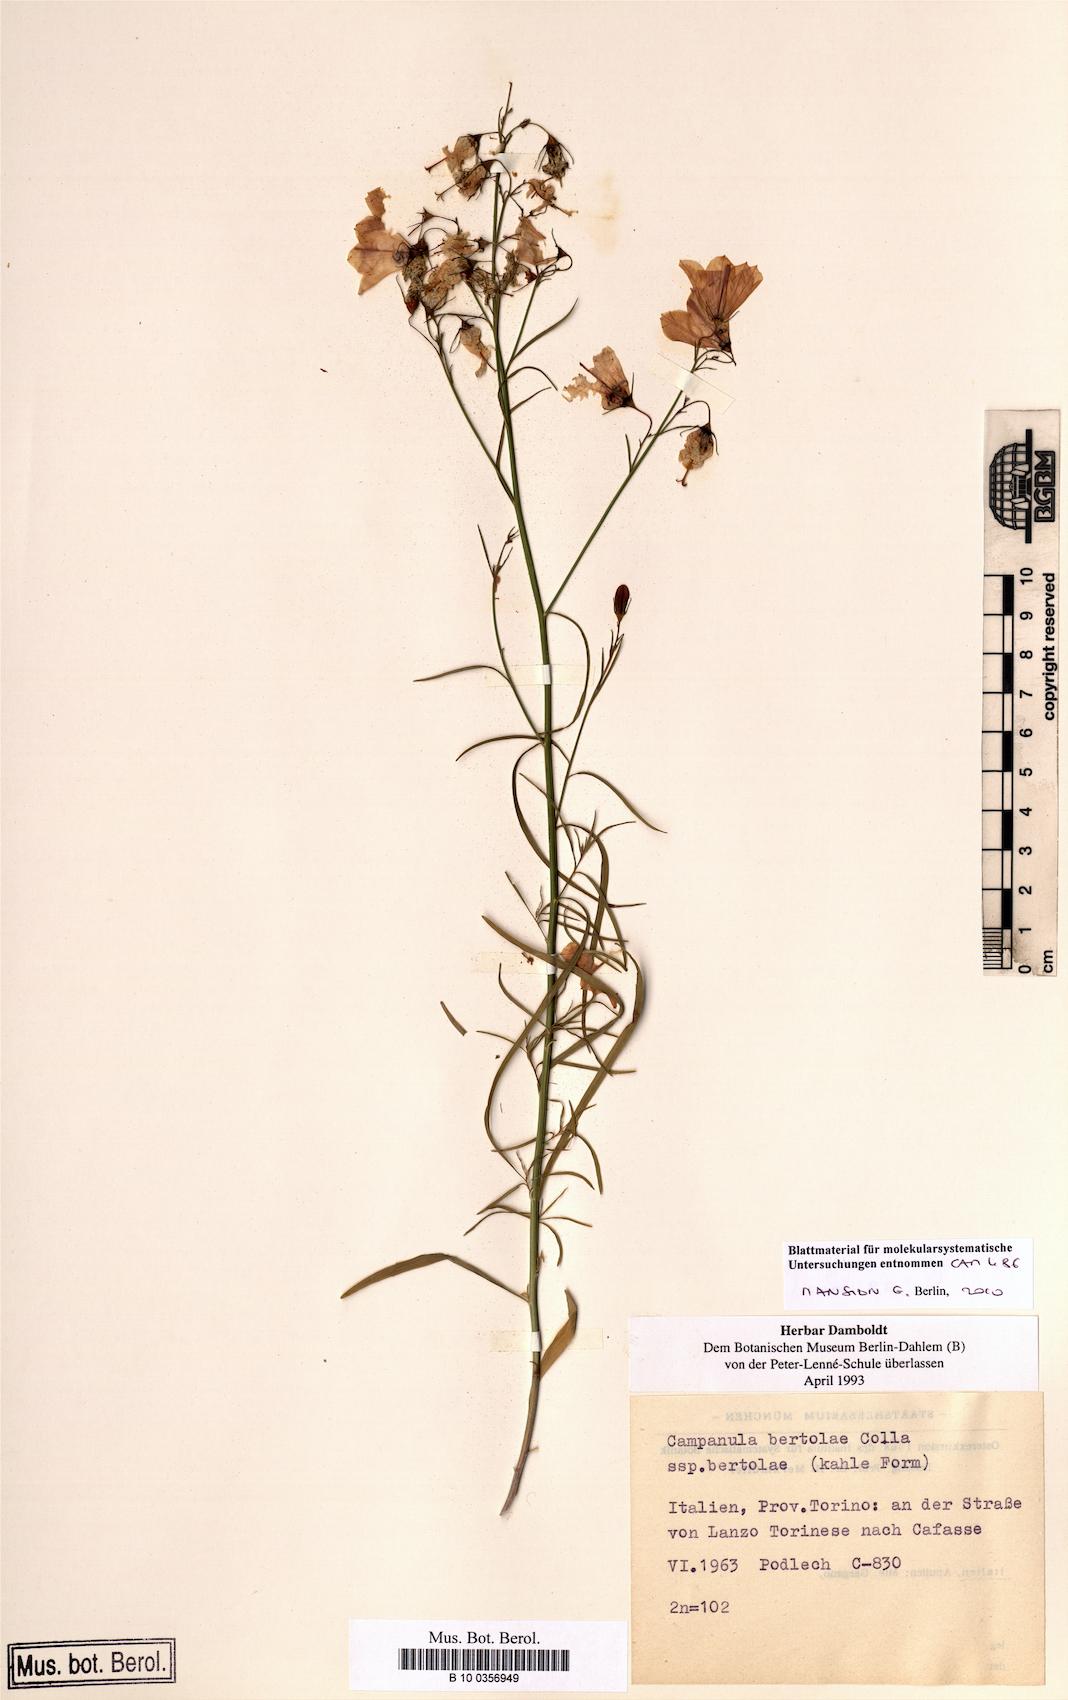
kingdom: Plantae
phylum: Tracheophyta
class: Magnoliopsida
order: Asterales
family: Campanulaceae
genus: Campanula
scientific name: Campanula bertolae
